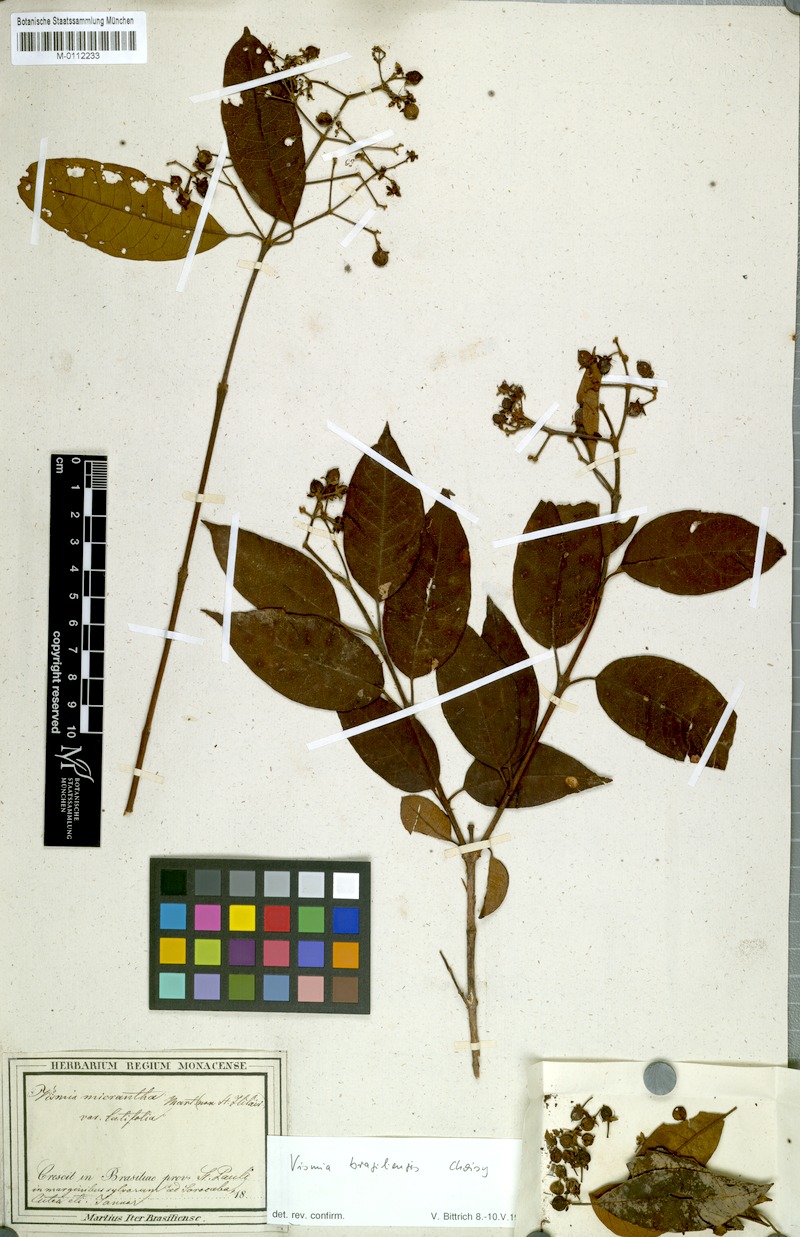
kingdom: Plantae
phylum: Tracheophyta
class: Magnoliopsida
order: Malpighiales
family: Hypericaceae
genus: Vismia
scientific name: Vismia brasiliensis
